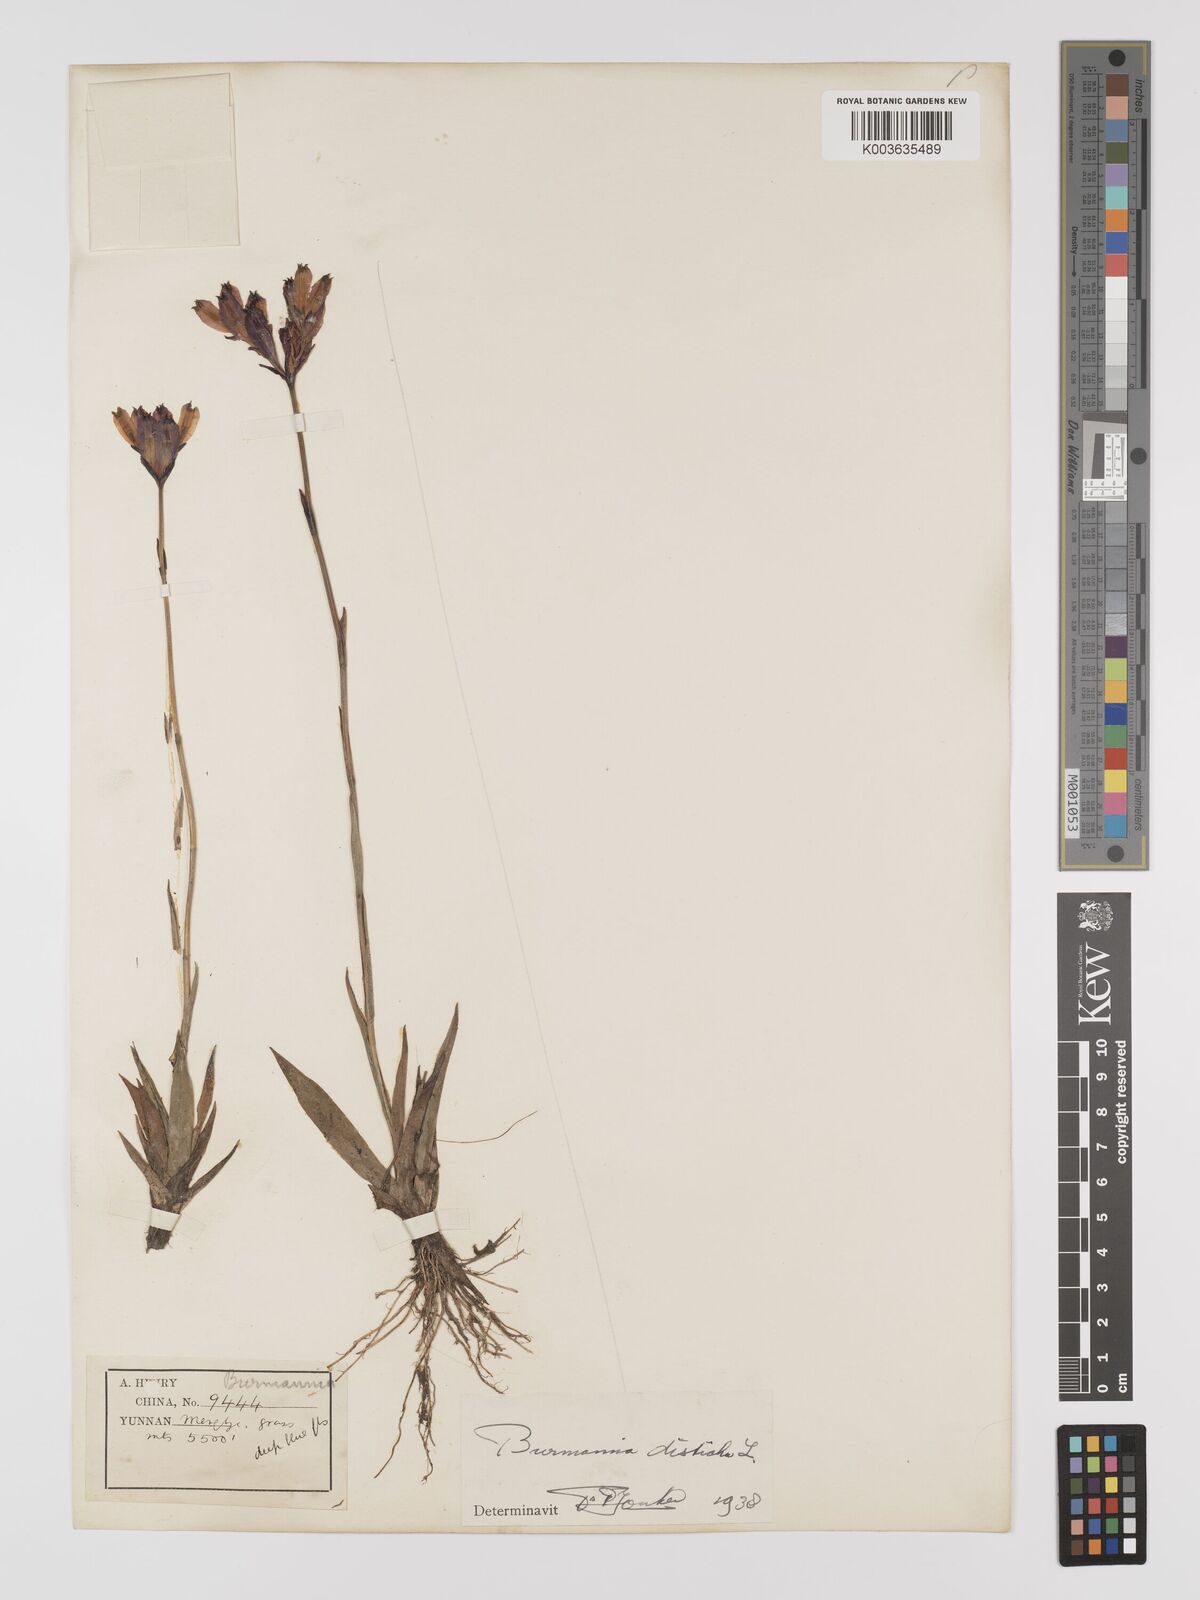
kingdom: Plantae
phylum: Tracheophyta
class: Liliopsida
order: Dioscoreales
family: Burmanniaceae
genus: Burmannia
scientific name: Burmannia disticha
